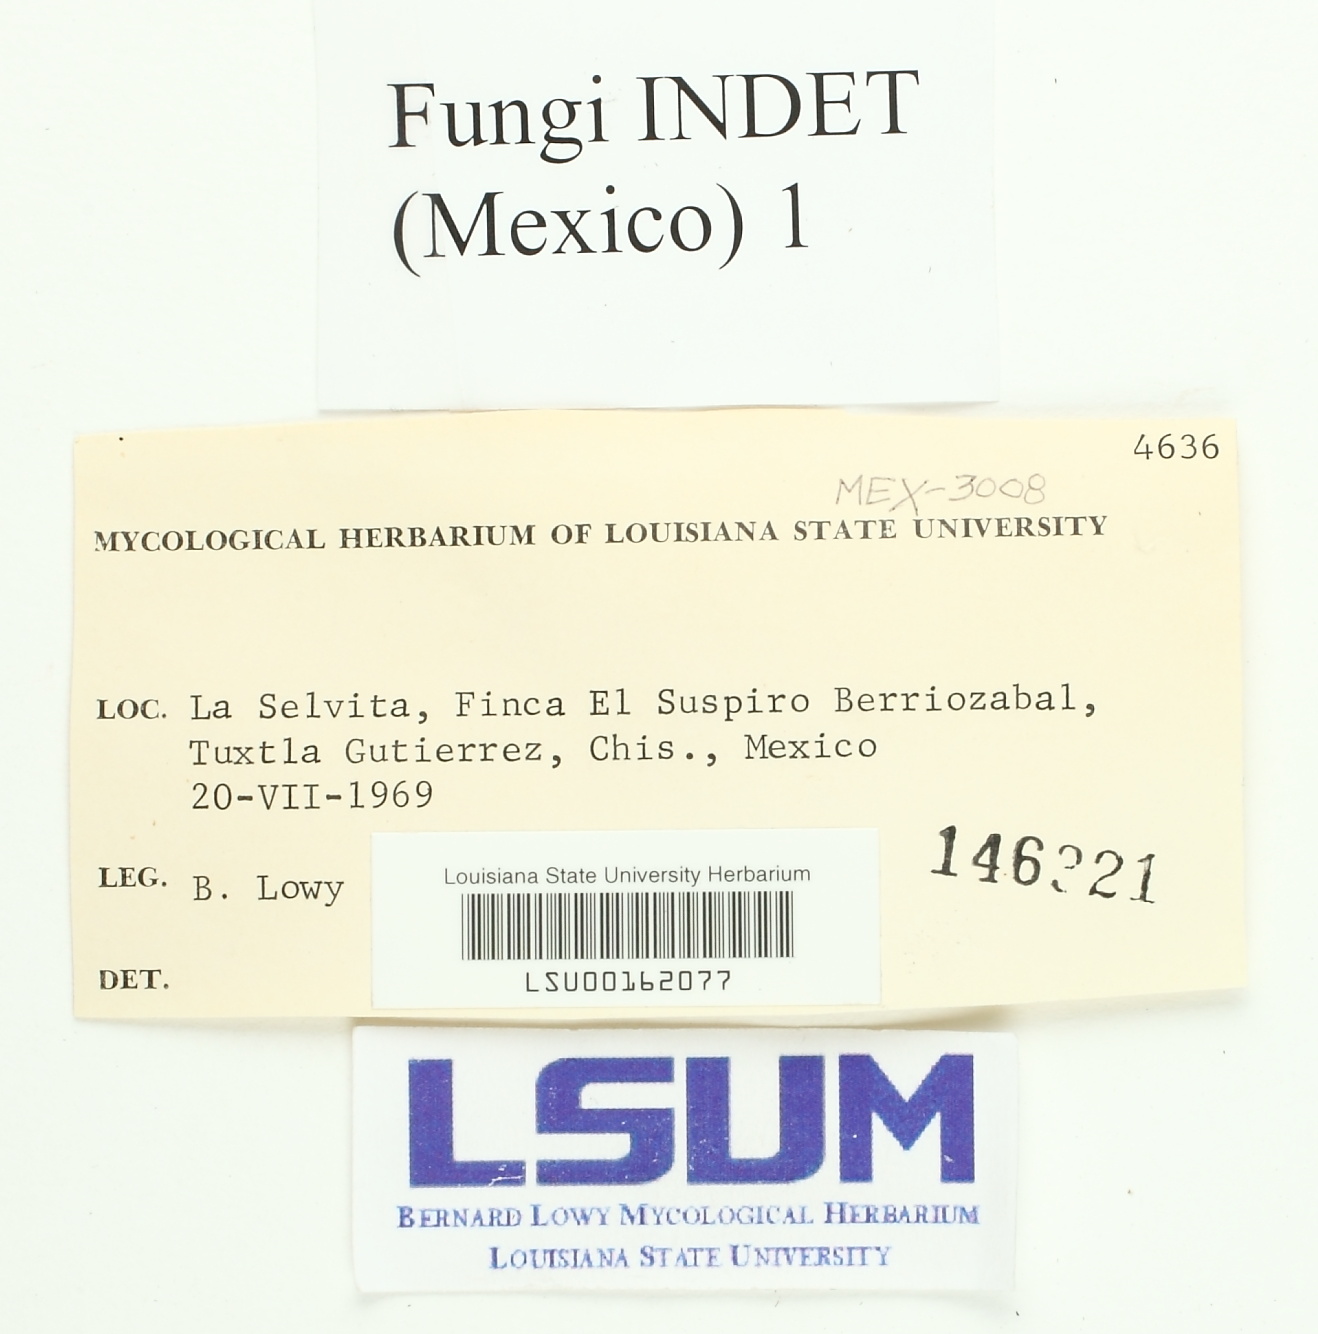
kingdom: Fungi
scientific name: Fungi
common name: Fungi
